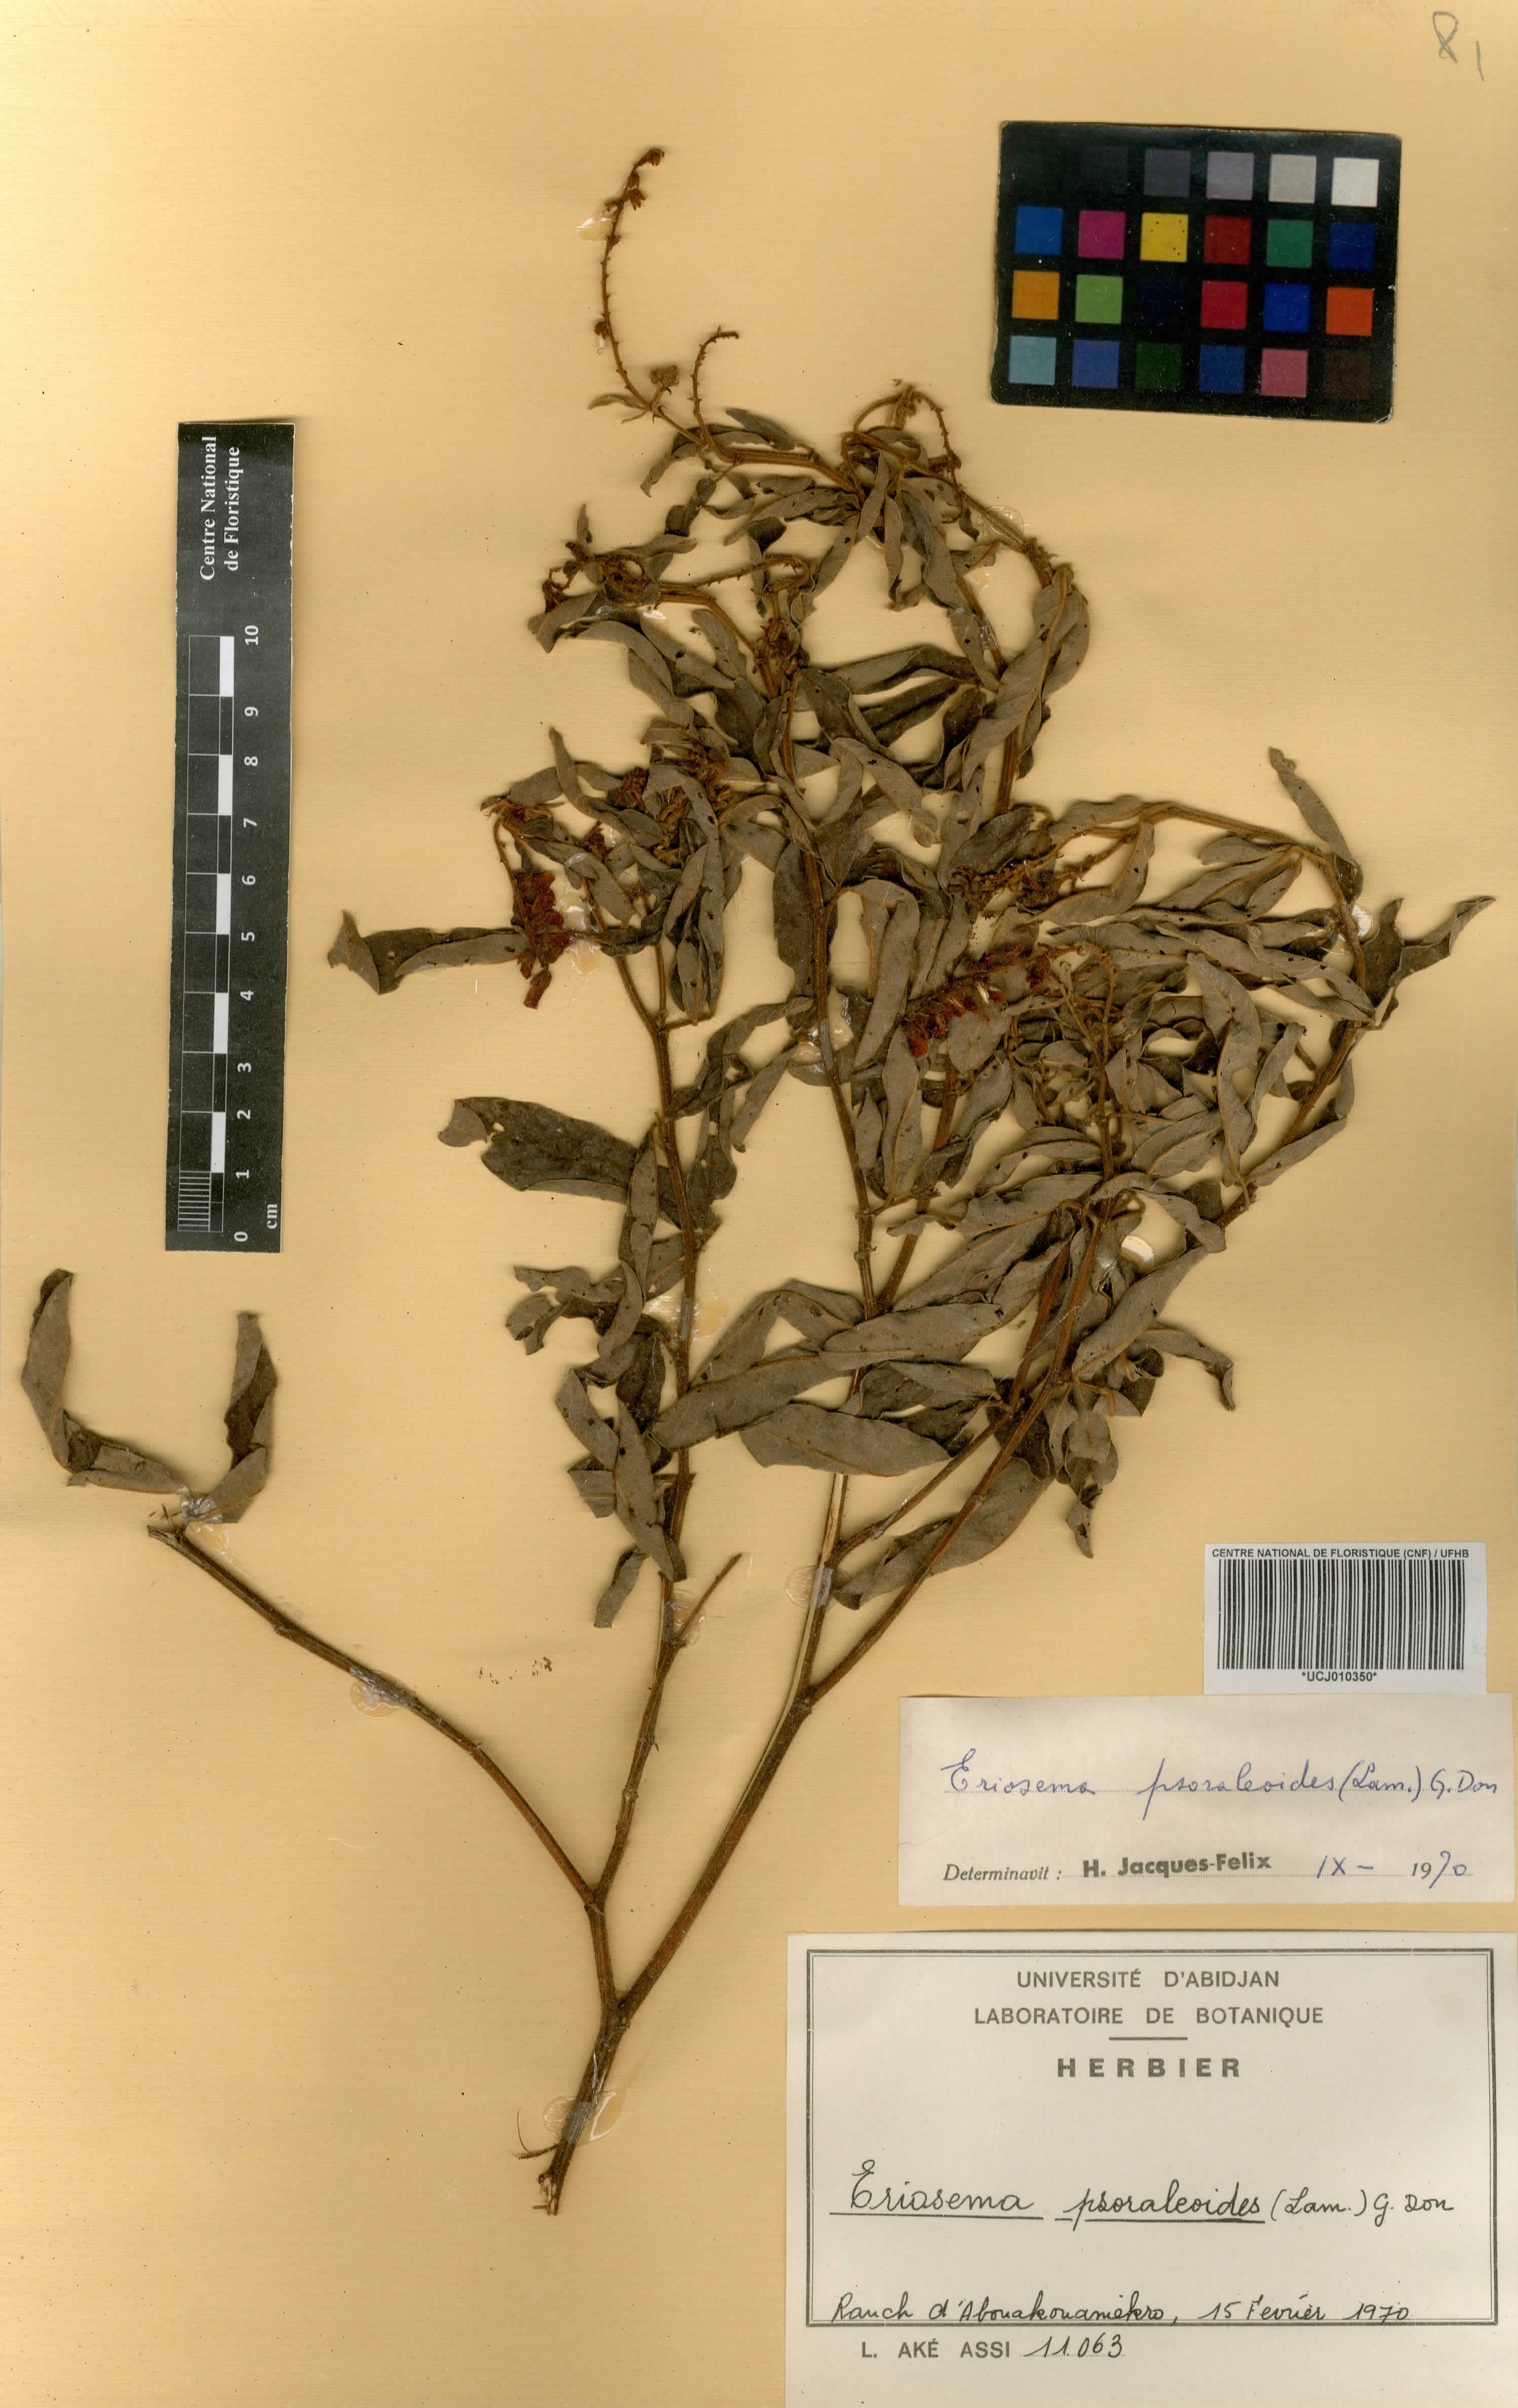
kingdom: Plantae
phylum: Tracheophyta
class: Magnoliopsida
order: Fabales
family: Fabaceae
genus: Eriosema
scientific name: Eriosema psoraleoides
